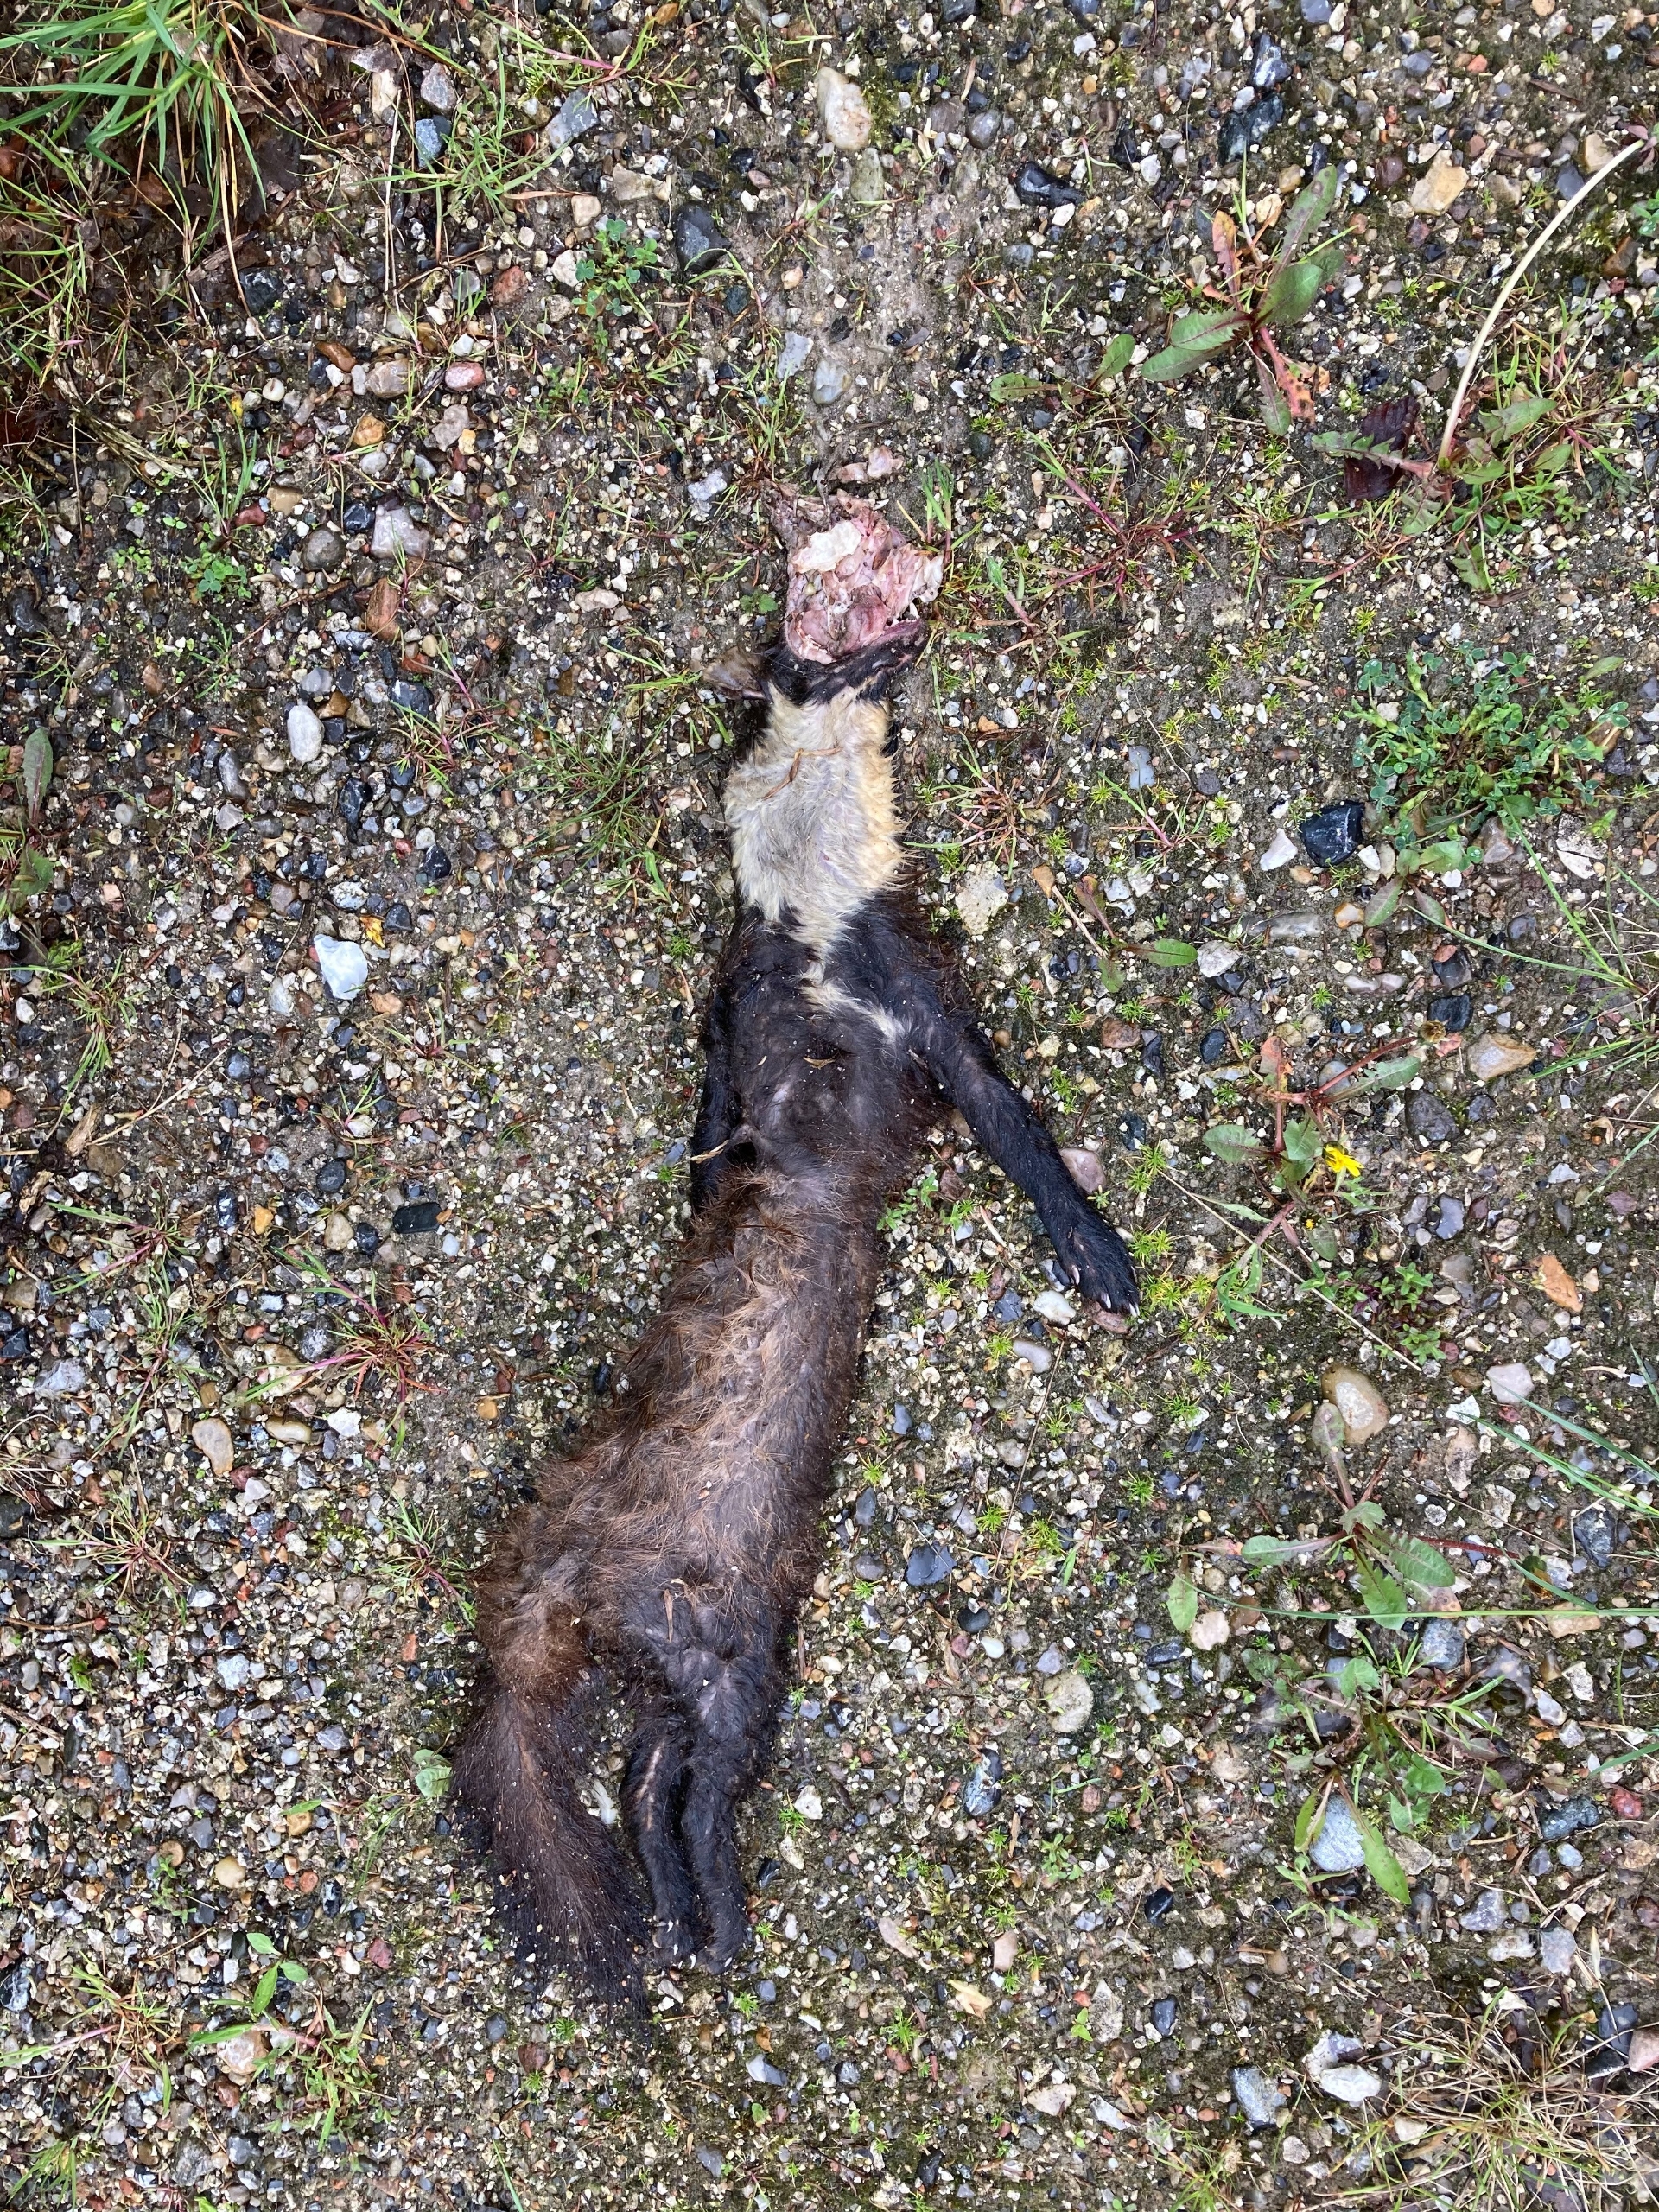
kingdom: Animalia
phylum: Chordata
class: Mammalia
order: Carnivora
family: Mustelidae
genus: Martes
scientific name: Martes foina
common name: Husmår
